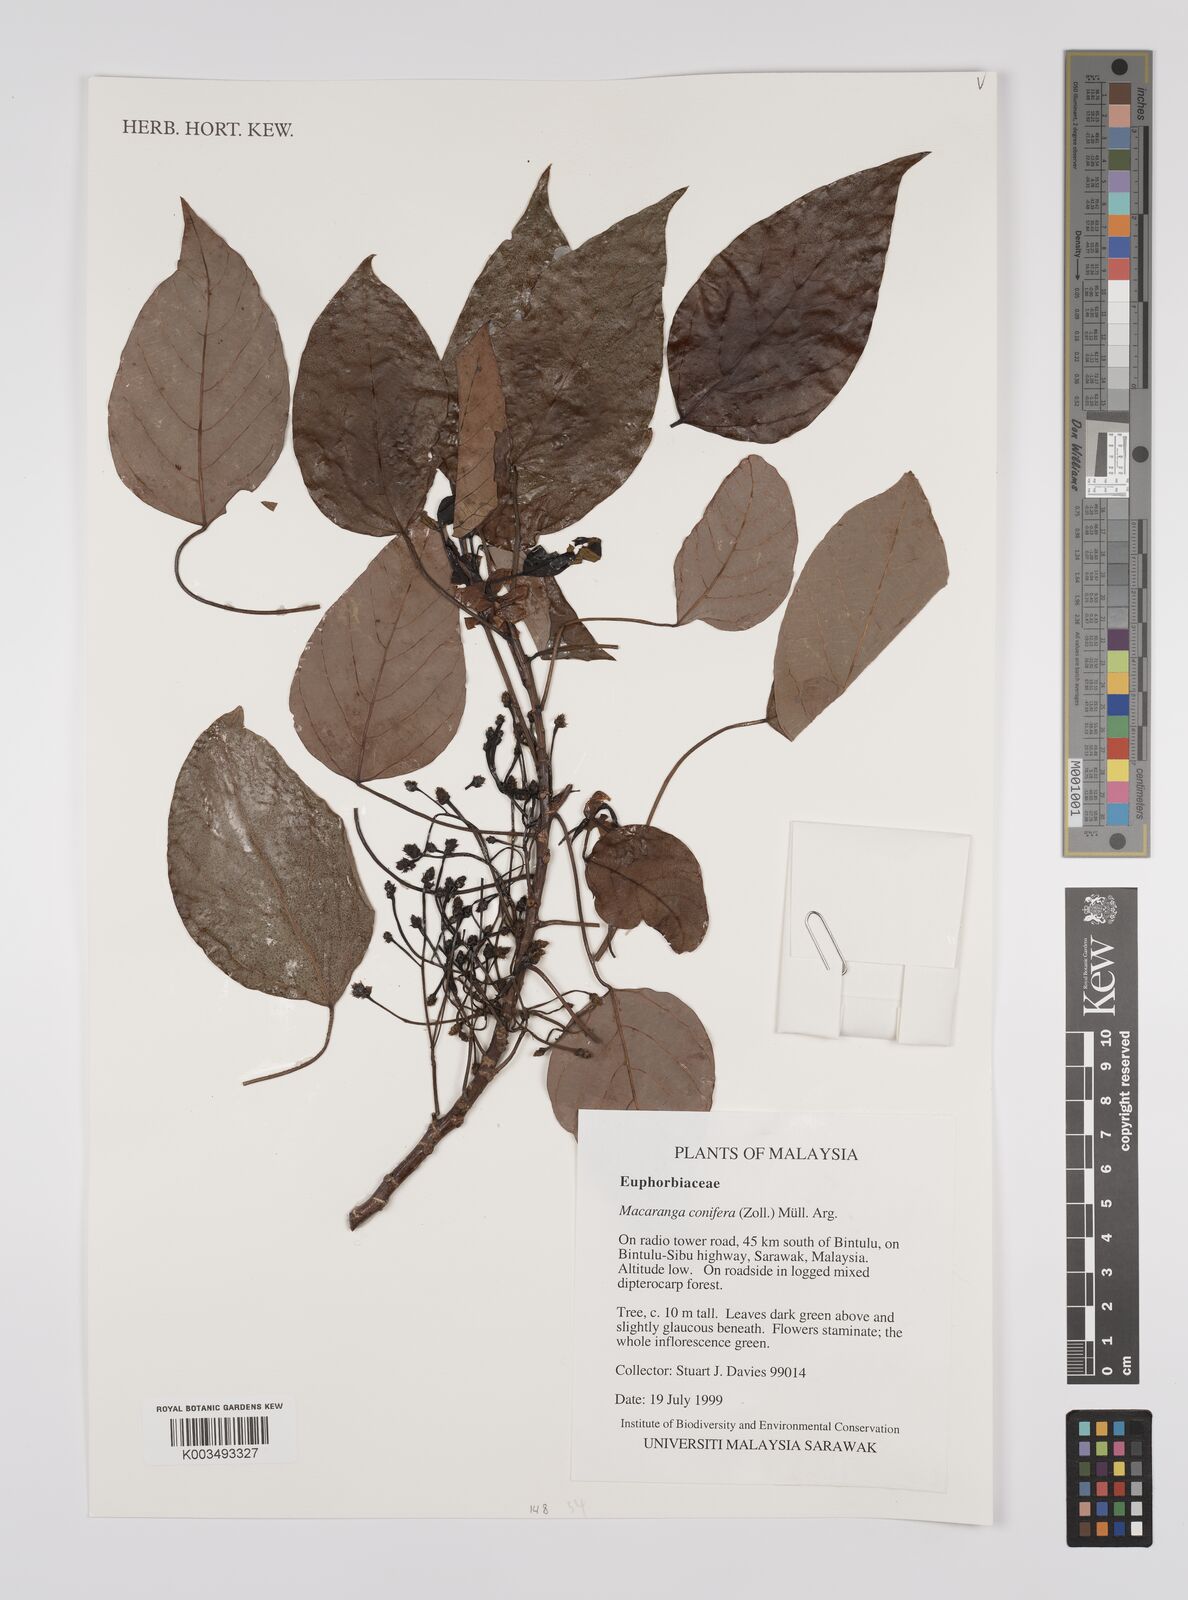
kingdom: Plantae
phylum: Tracheophyta
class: Magnoliopsida
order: Malpighiales
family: Euphorbiaceae
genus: Macaranga
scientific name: Macaranga conifera
